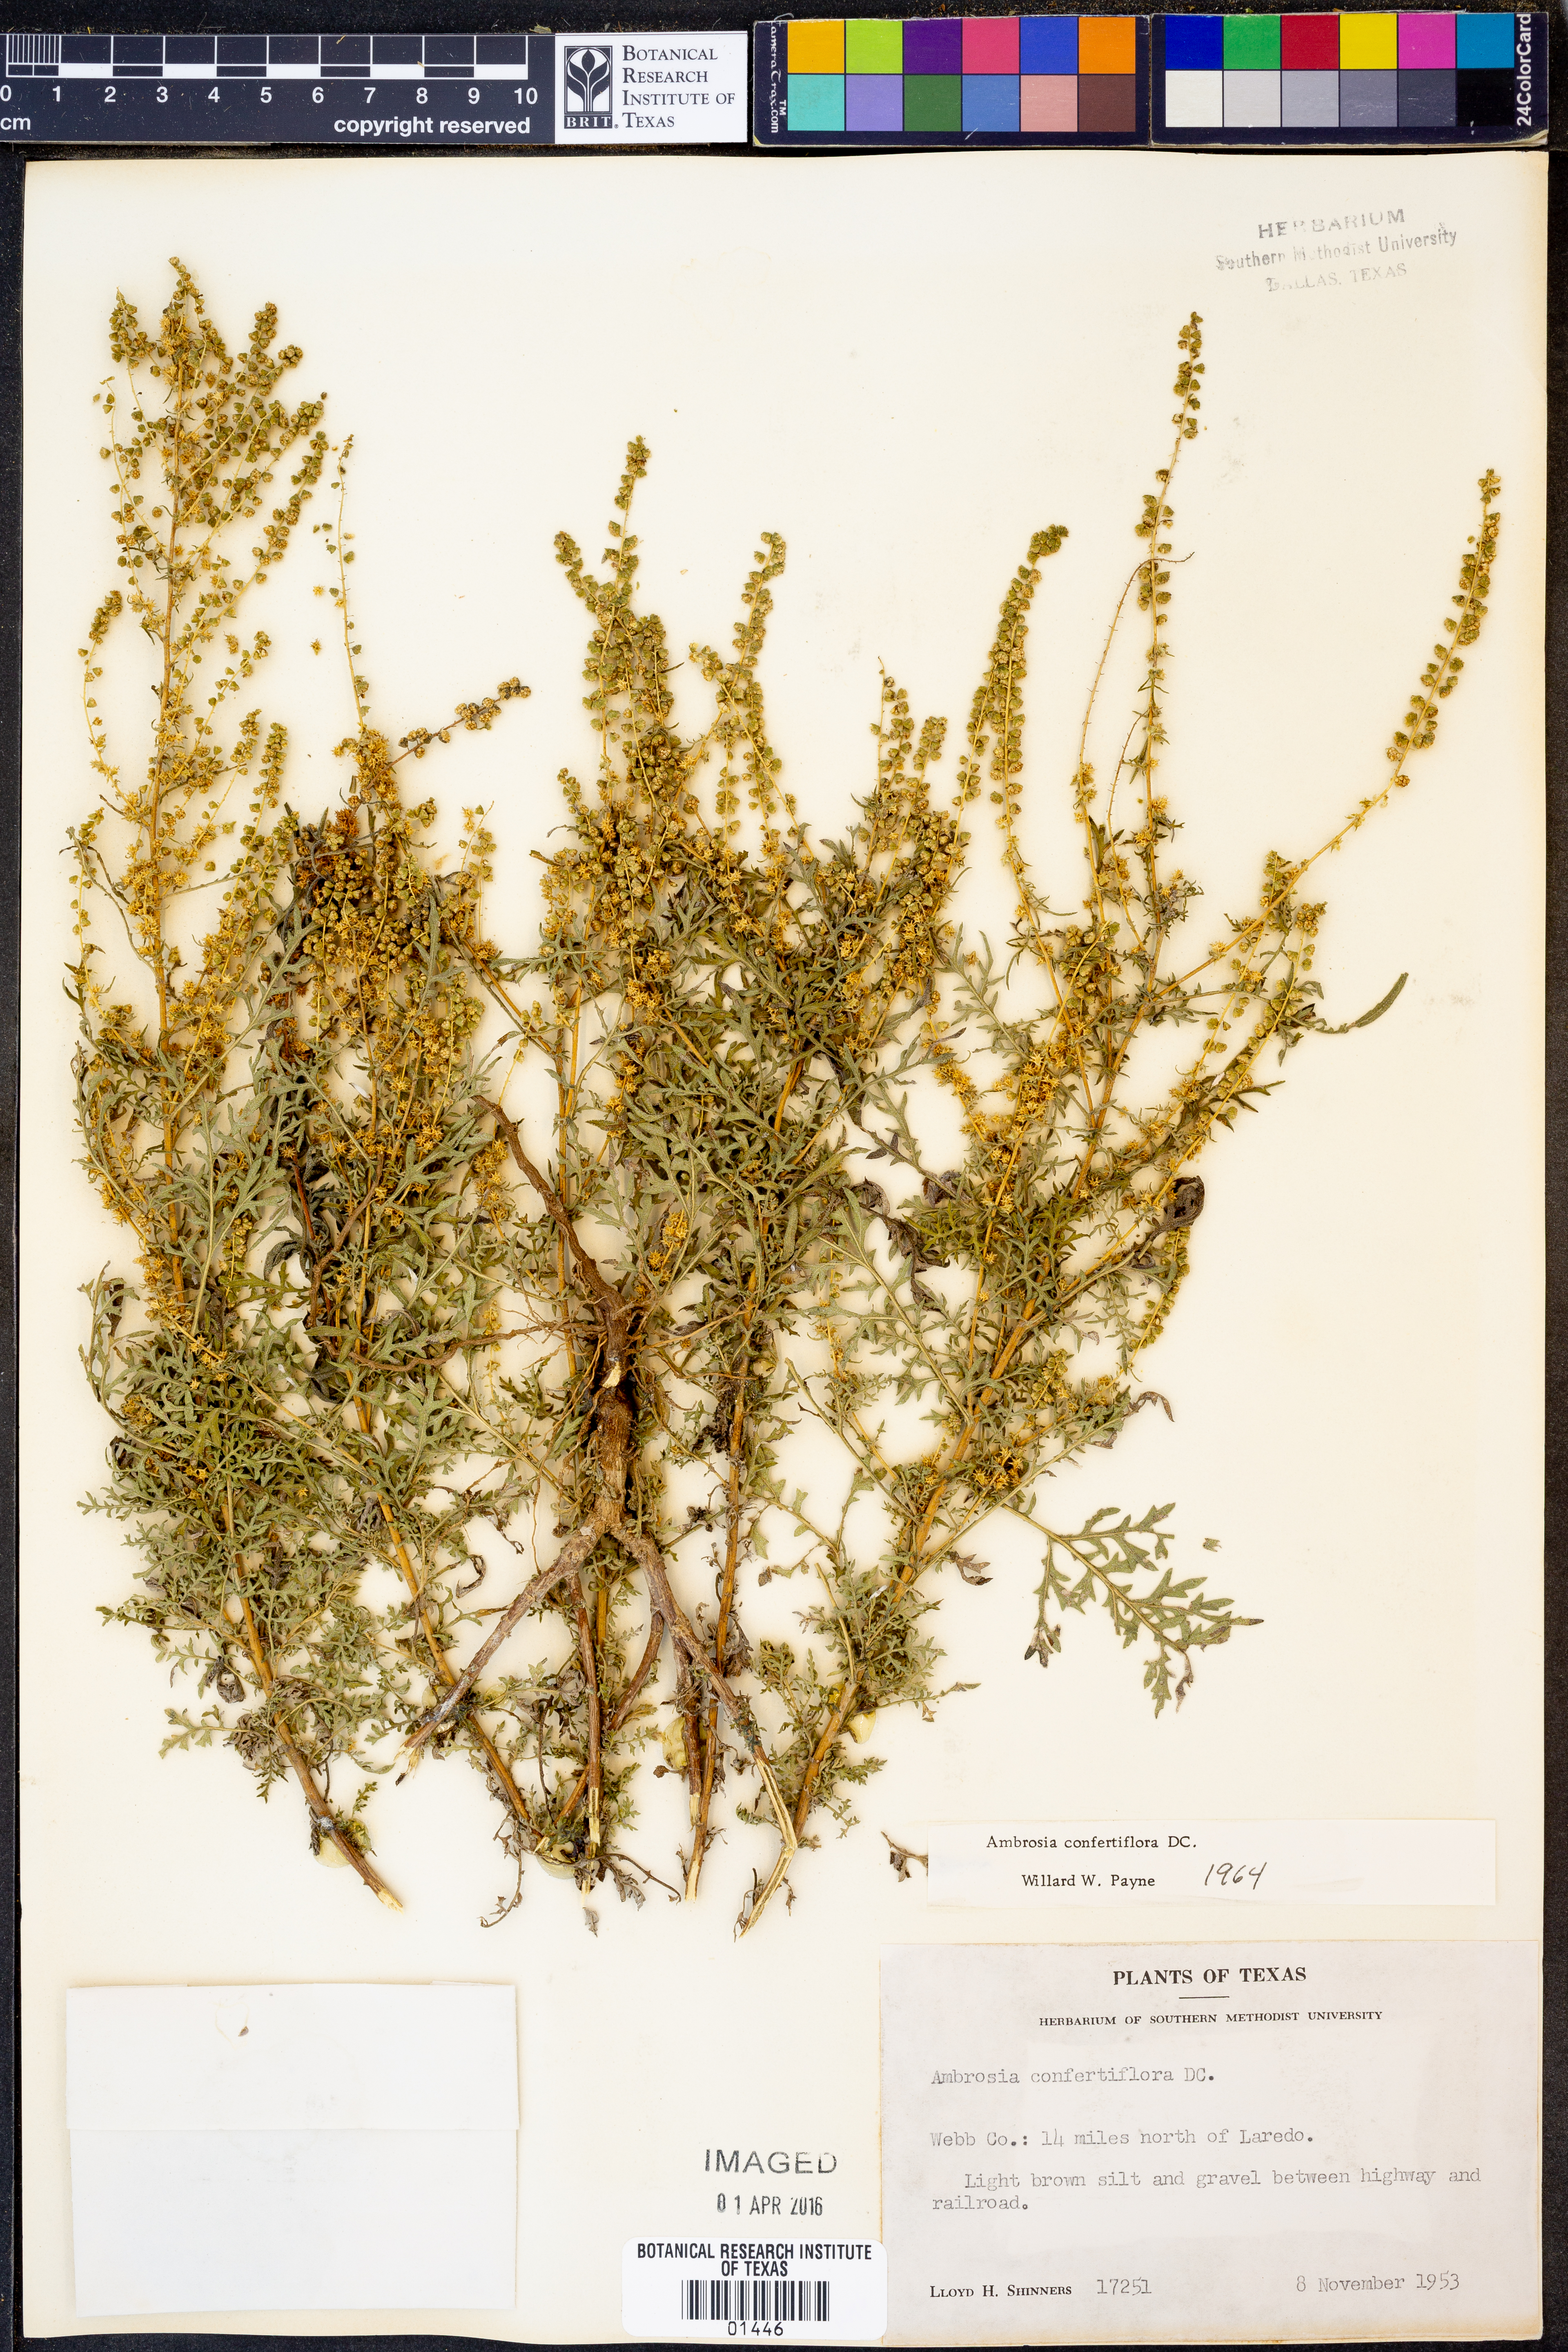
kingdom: Plantae
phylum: Tracheophyta
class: Magnoliopsida
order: Asterales
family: Asteraceae
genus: Ambrosia
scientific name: Ambrosia confertiflora
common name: Bur ragweed
